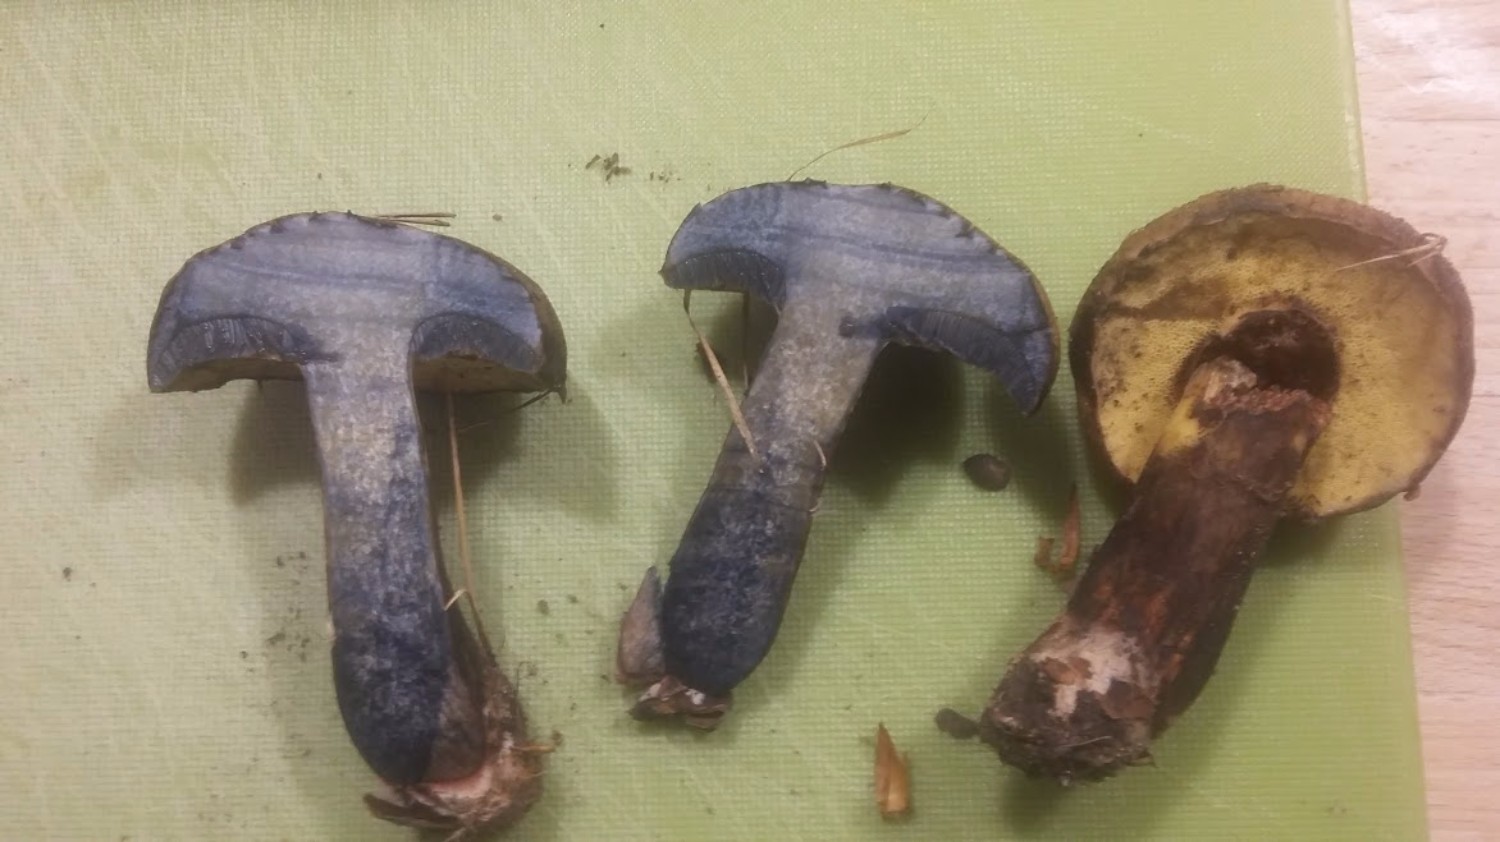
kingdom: Fungi
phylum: Basidiomycota
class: Agaricomycetes
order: Boletales
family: Boletaceae
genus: Cyanoboletus
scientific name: Cyanoboletus pulverulentus
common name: sortblånende rørhat
